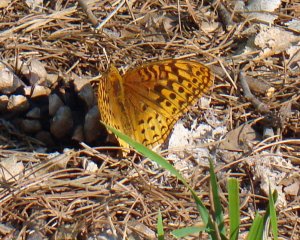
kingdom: Animalia
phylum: Arthropoda
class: Insecta
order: Lepidoptera
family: Nymphalidae
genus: Speyeria
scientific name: Speyeria cybele
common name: Great Spangled Fritillary
